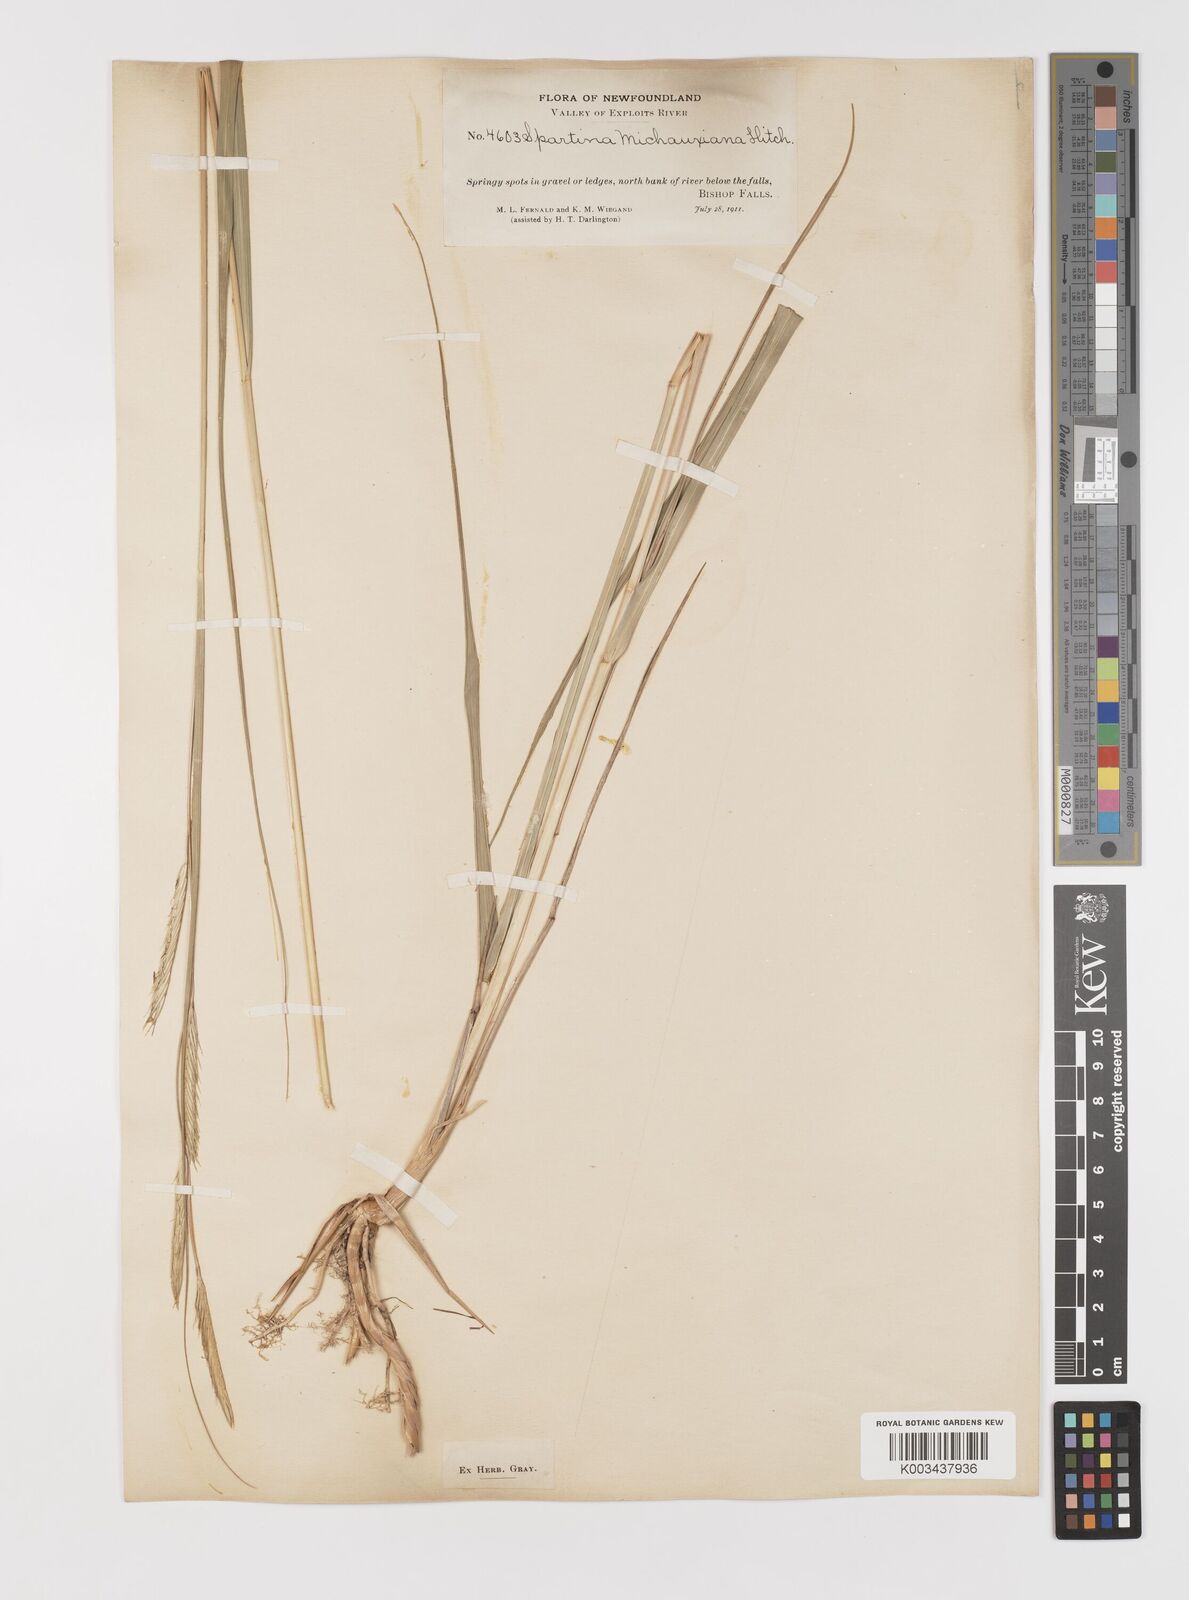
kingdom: Plantae
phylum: Tracheophyta
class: Liliopsida
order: Poales
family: Poaceae
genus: Sporobolus
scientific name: Sporobolus michauxianus
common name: Freshwater cordgrass
